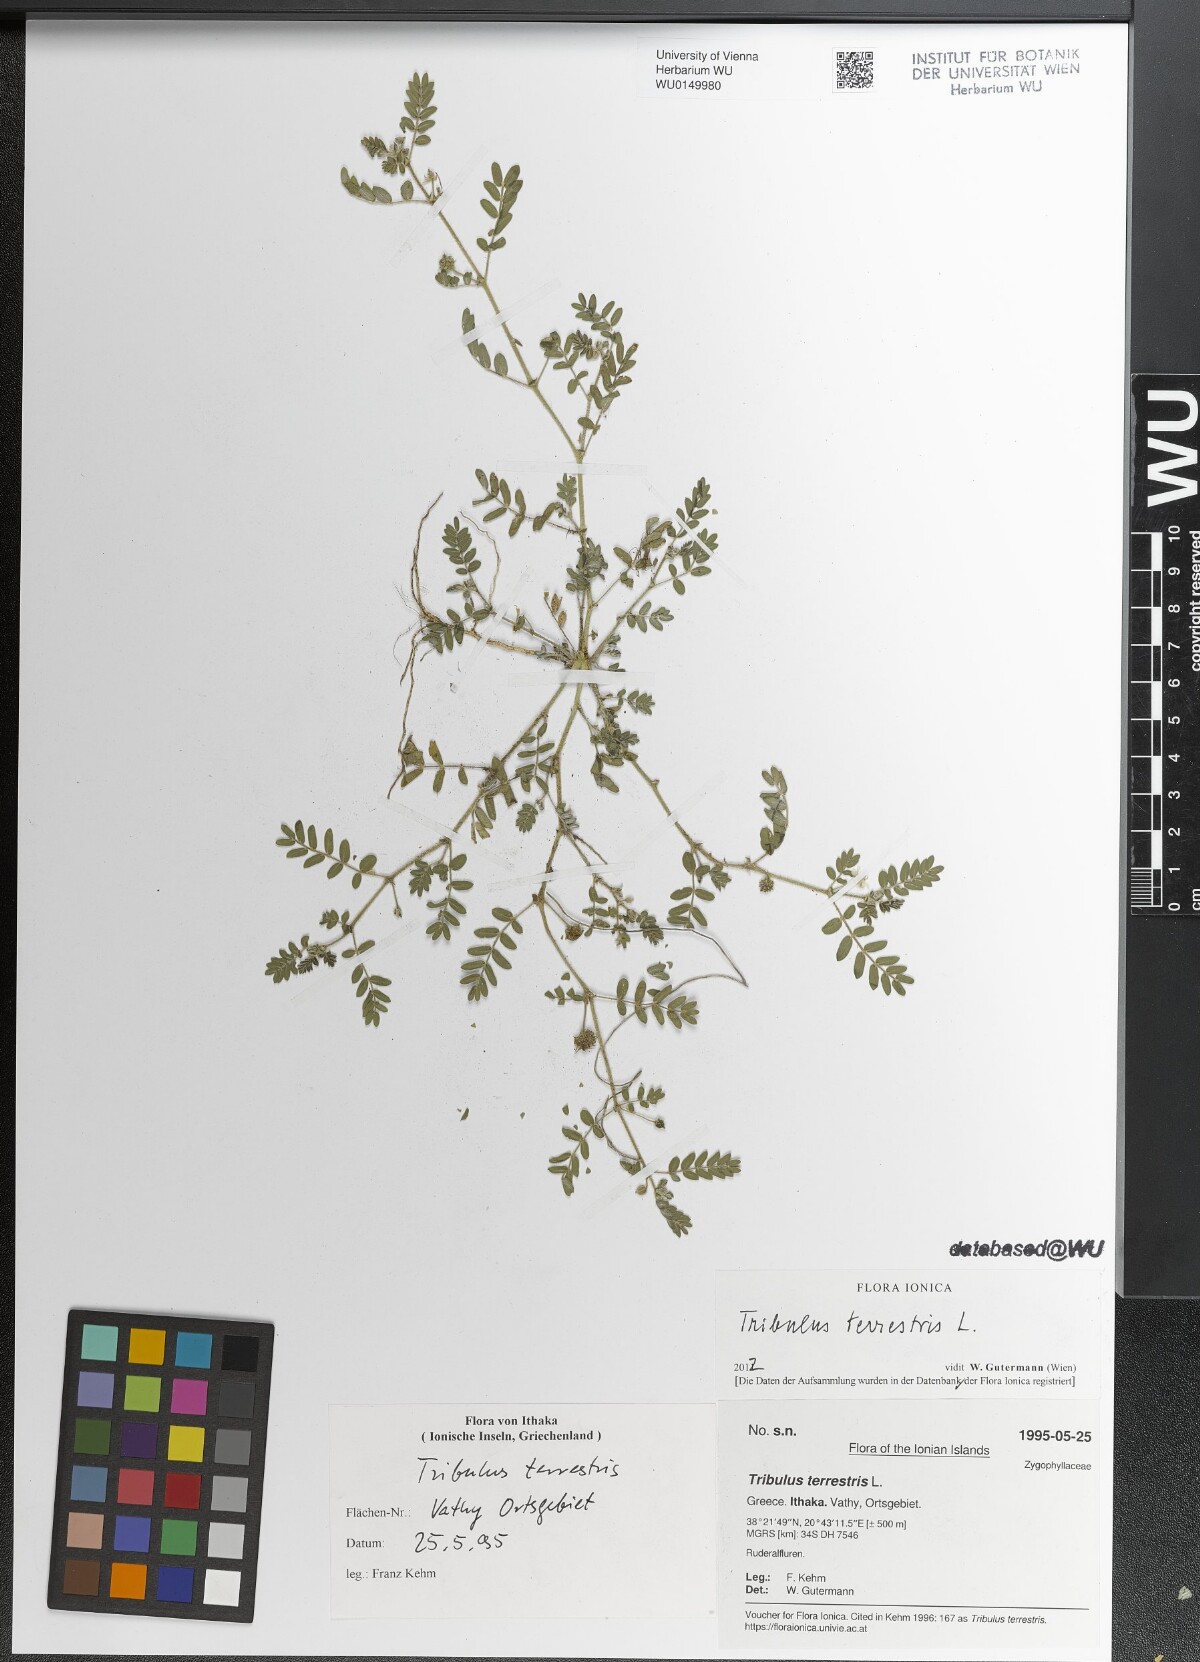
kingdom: Plantae
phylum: Tracheophyta
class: Magnoliopsida
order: Zygophyllales
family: Zygophyllaceae
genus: Tribulus
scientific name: Tribulus terrestris
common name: Puncturevine
